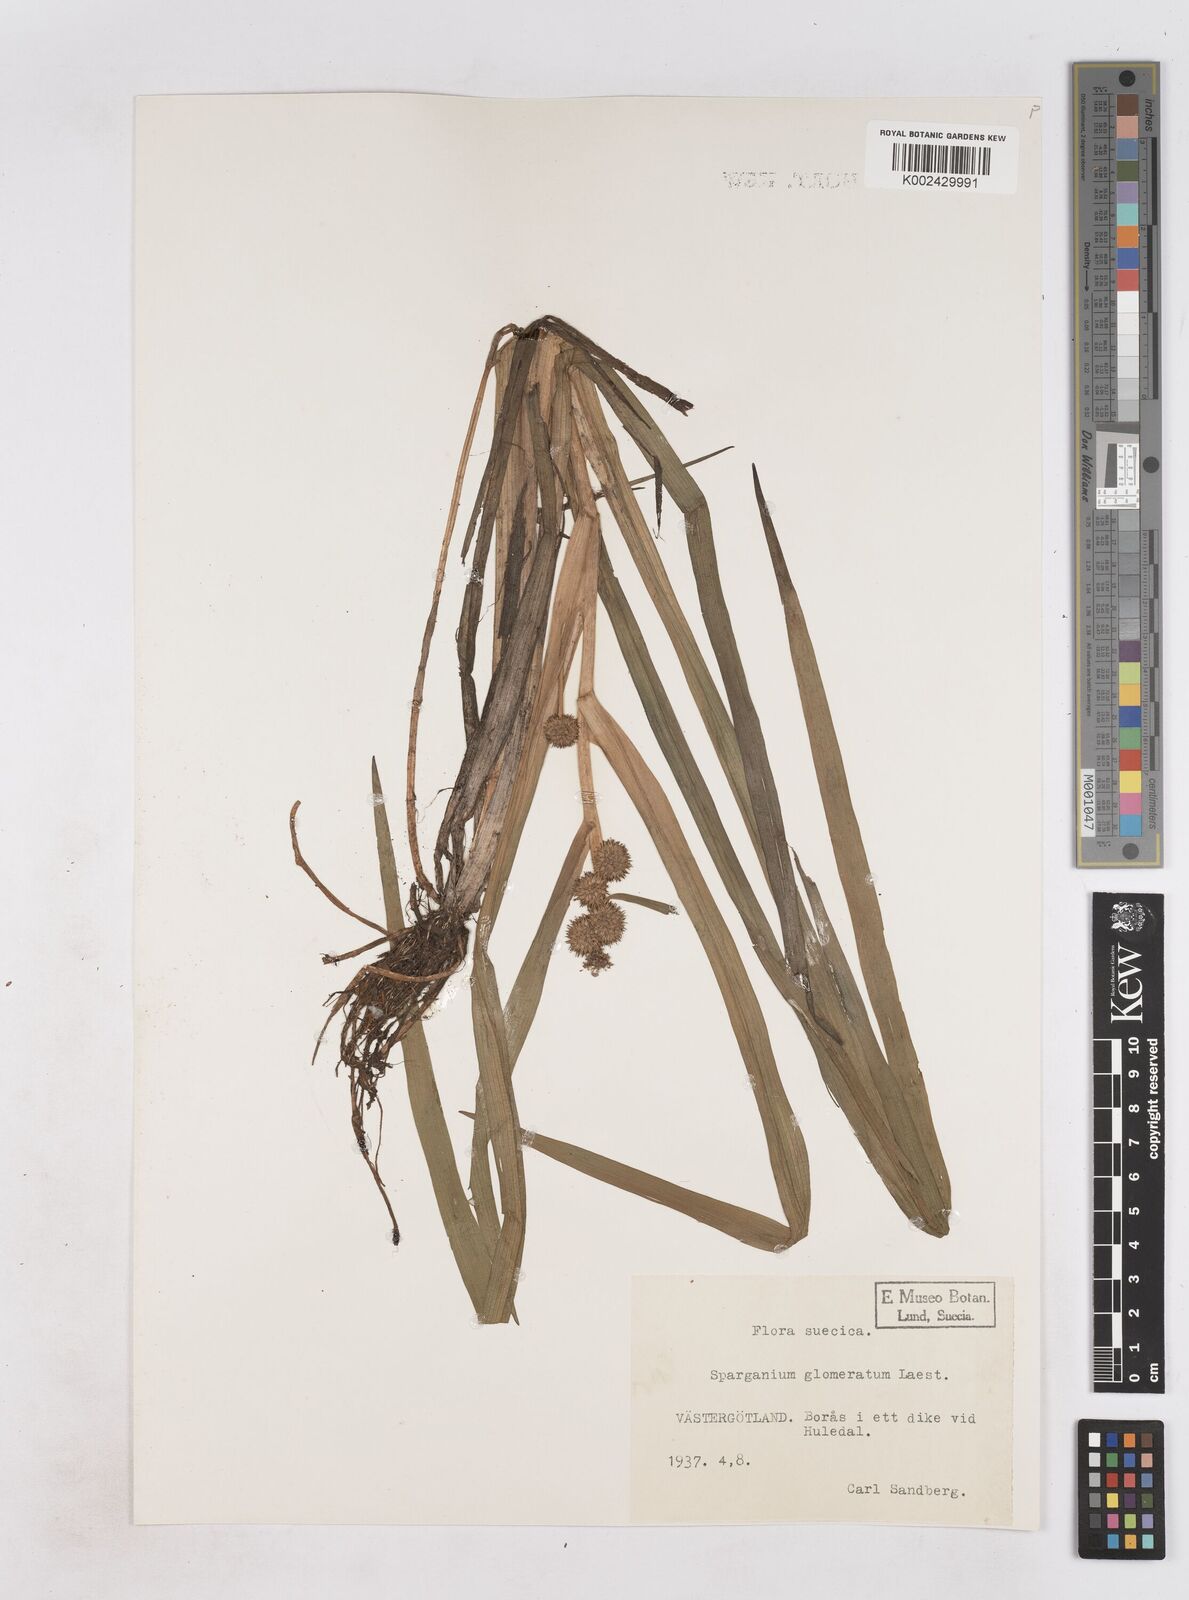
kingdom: Plantae
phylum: Tracheophyta
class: Liliopsida
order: Poales
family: Typhaceae
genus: Sparganium
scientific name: Sparganium angustifolium
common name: Floating bur-reed
